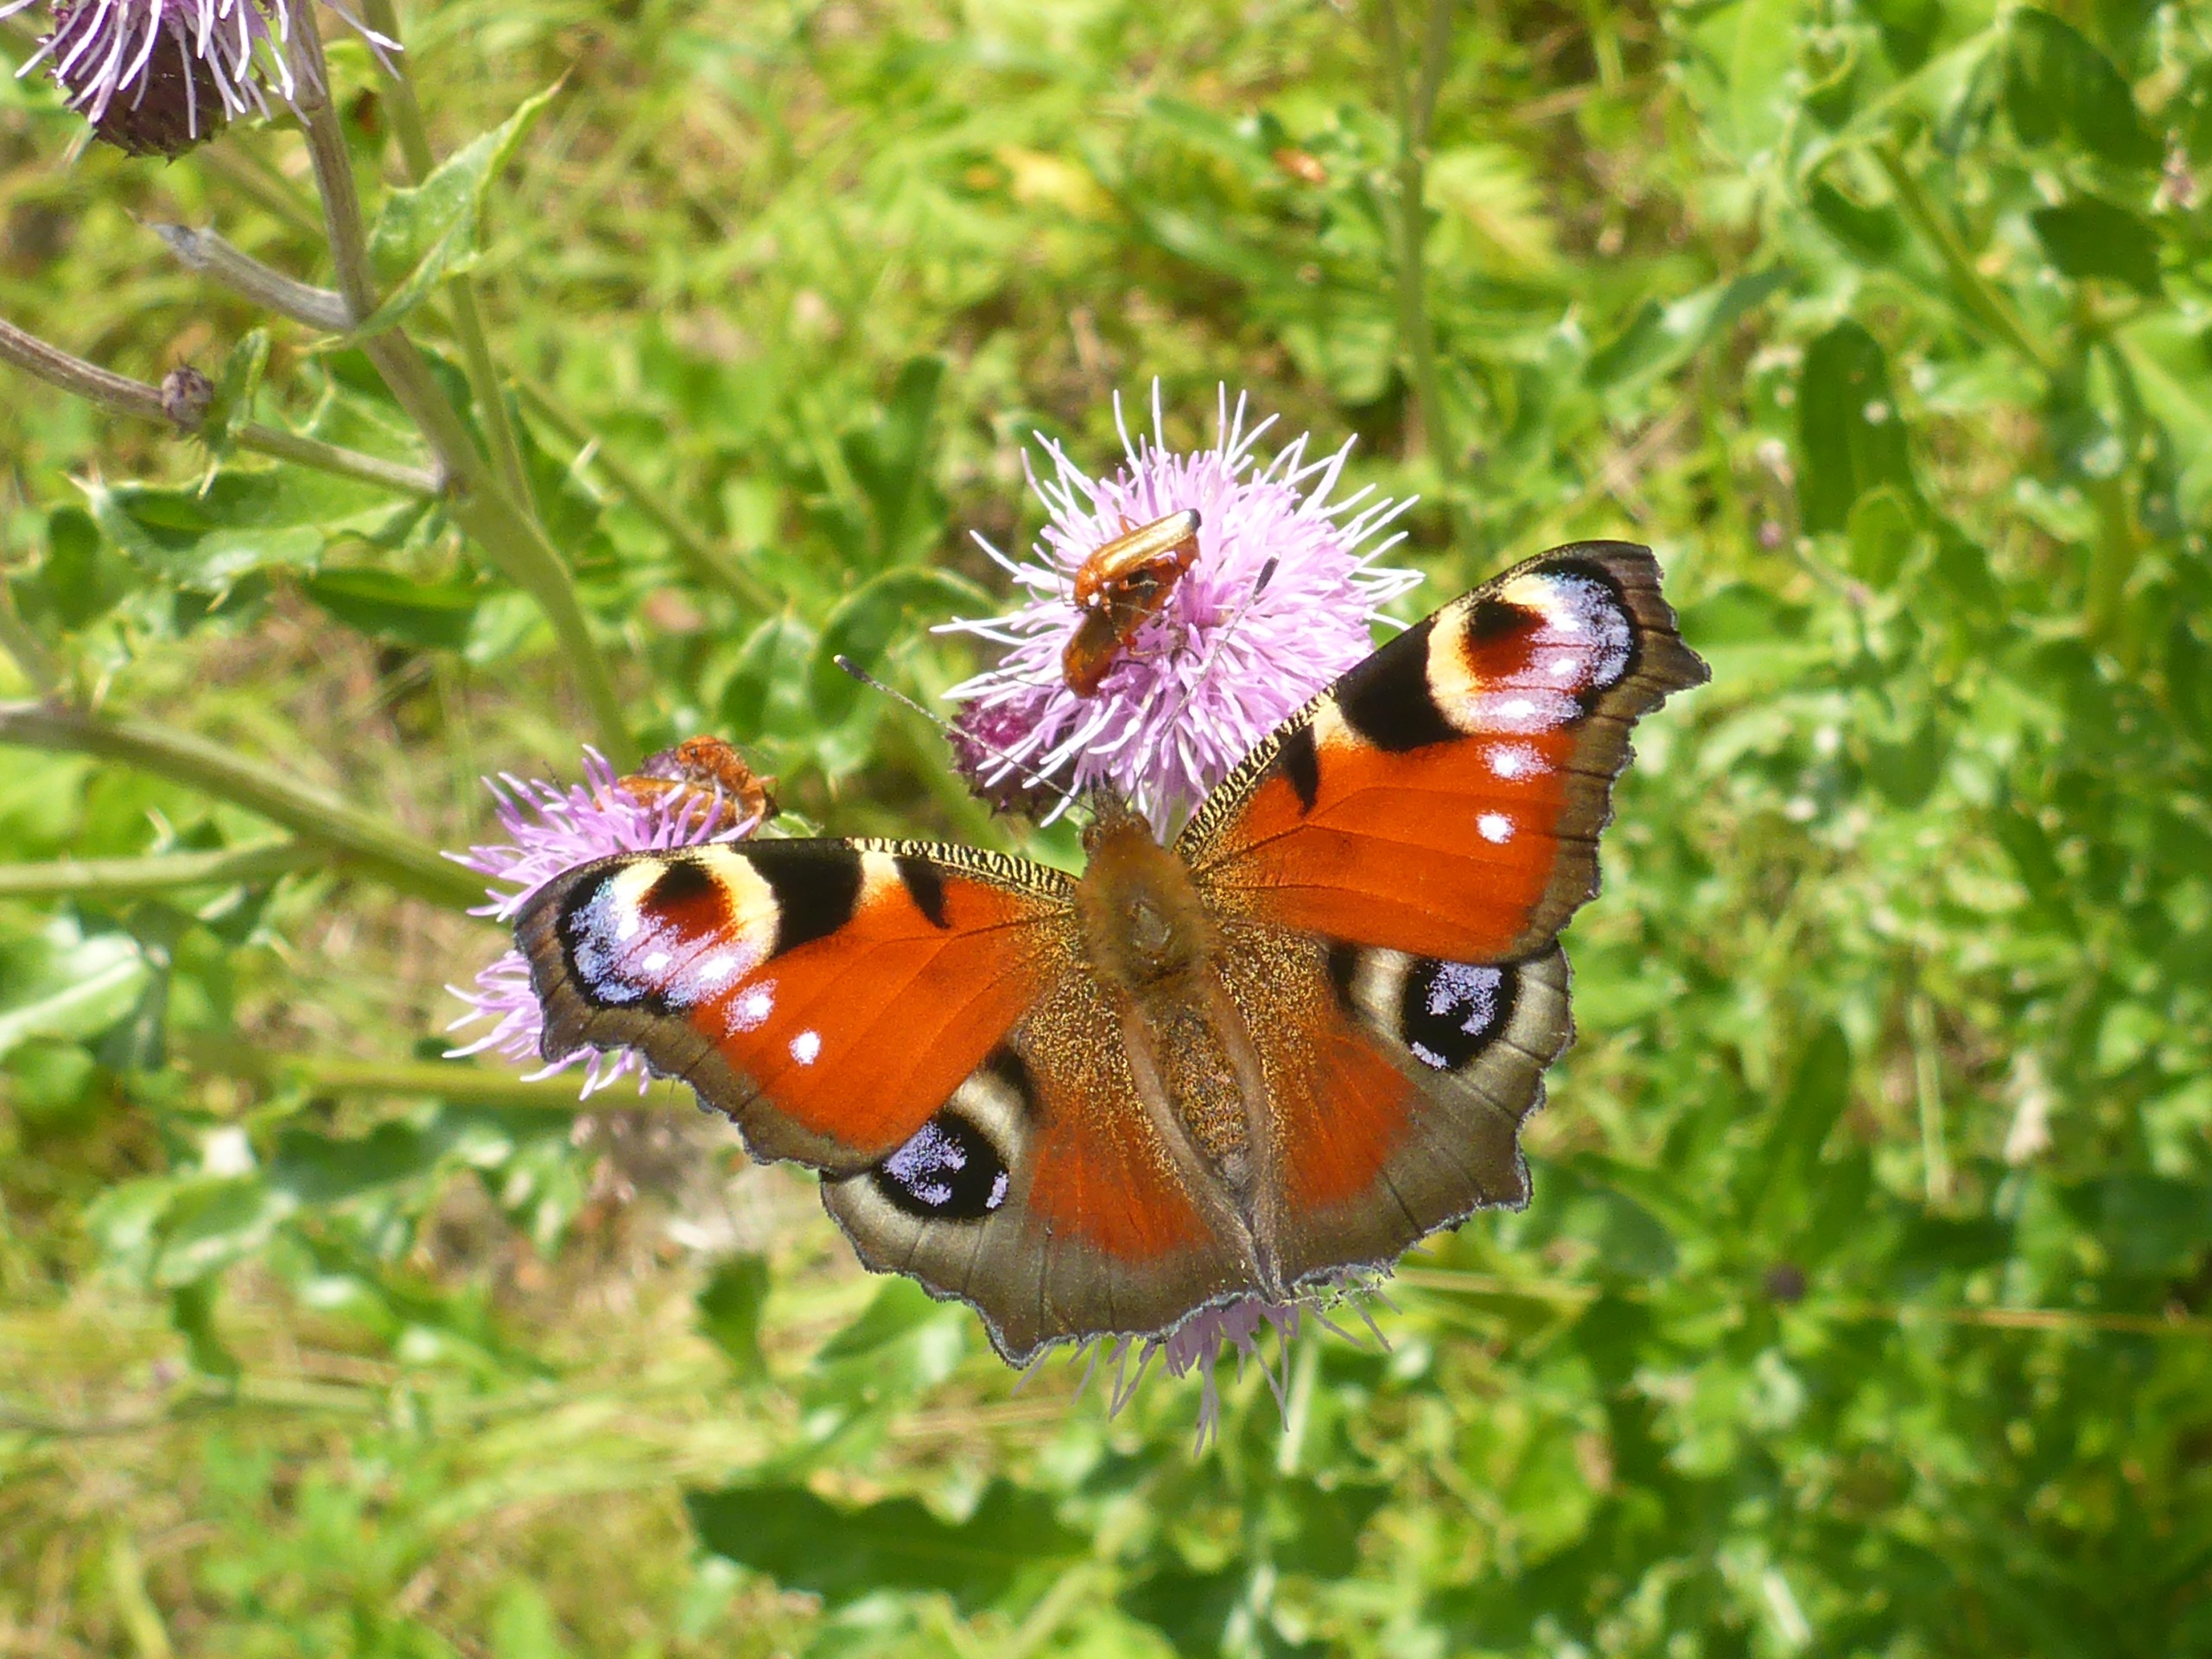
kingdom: Animalia
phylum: Arthropoda
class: Insecta
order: Lepidoptera
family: Nymphalidae
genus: Aglais
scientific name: Aglais io
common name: Dagpåfugleøje
